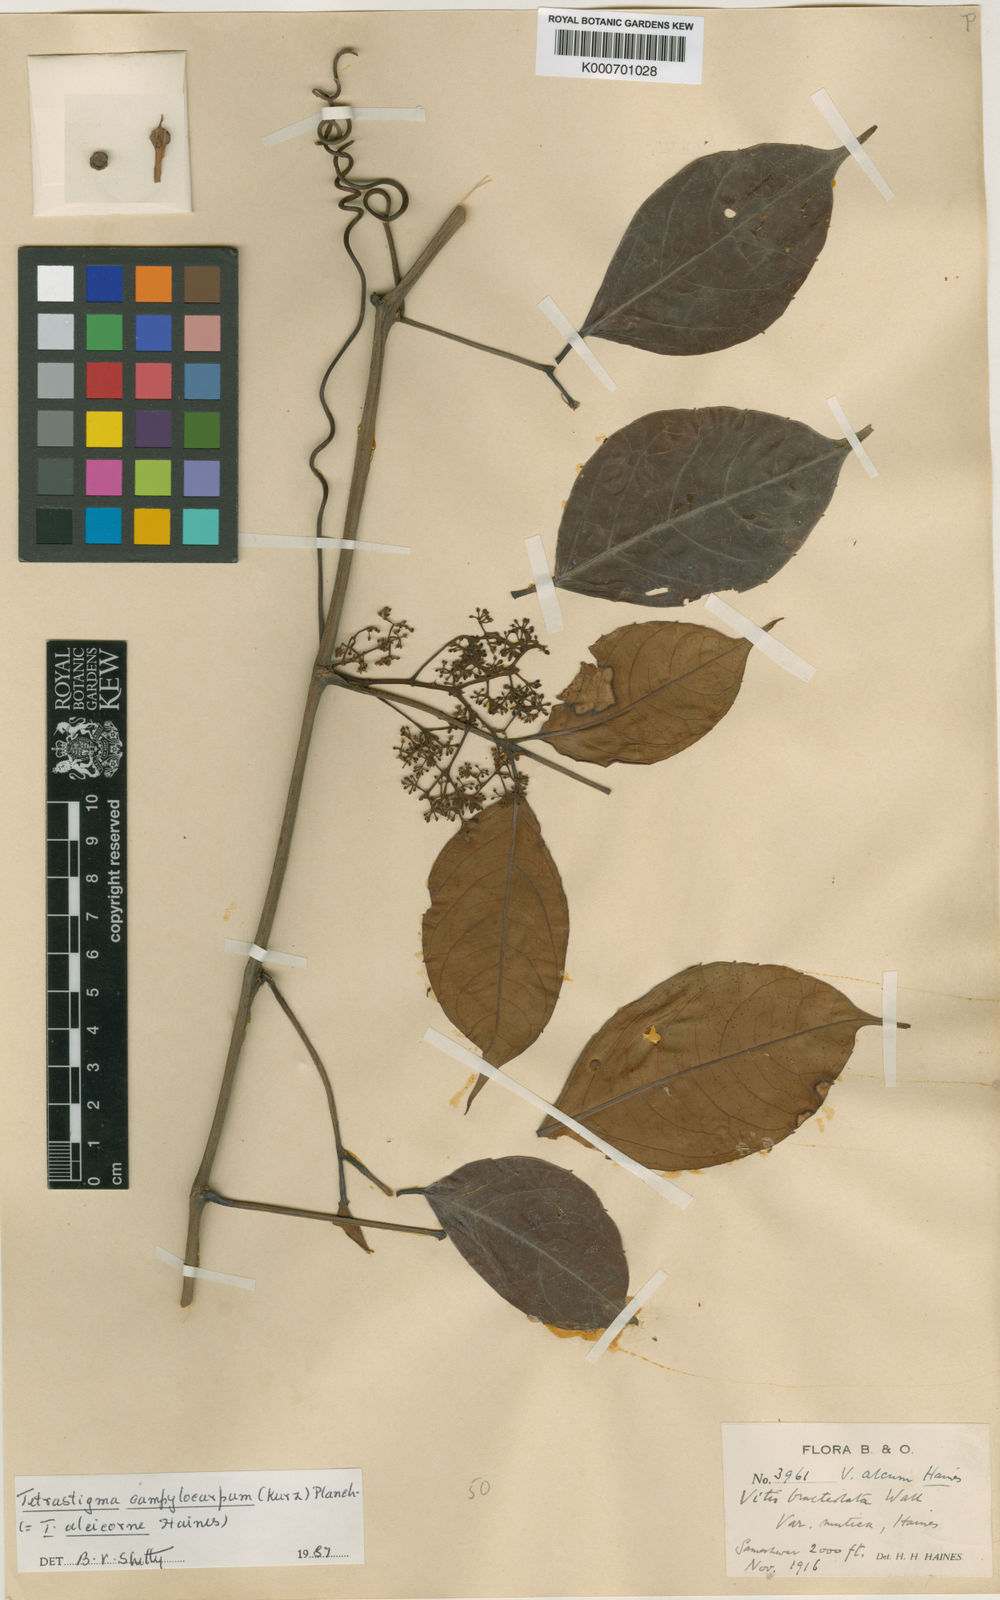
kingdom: Plantae
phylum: Tracheophyta
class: Magnoliopsida
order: Vitales
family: Vitaceae
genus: Tetrastigma
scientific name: Tetrastigma campylocarpum
